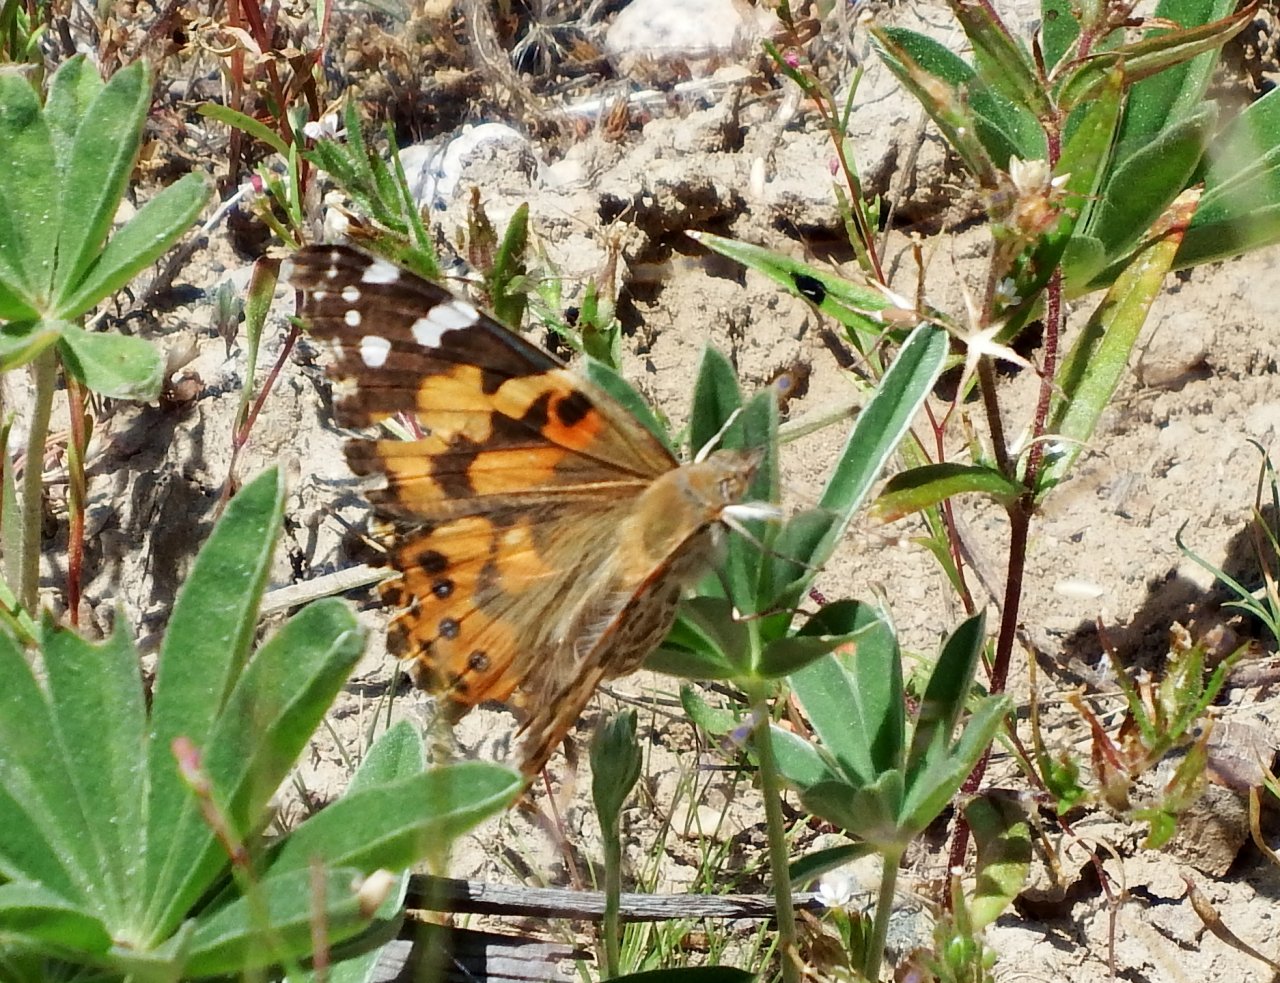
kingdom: Animalia
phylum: Arthropoda
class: Insecta
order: Lepidoptera
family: Nymphalidae
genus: Vanessa
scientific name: Vanessa cardui
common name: Painted Lady
